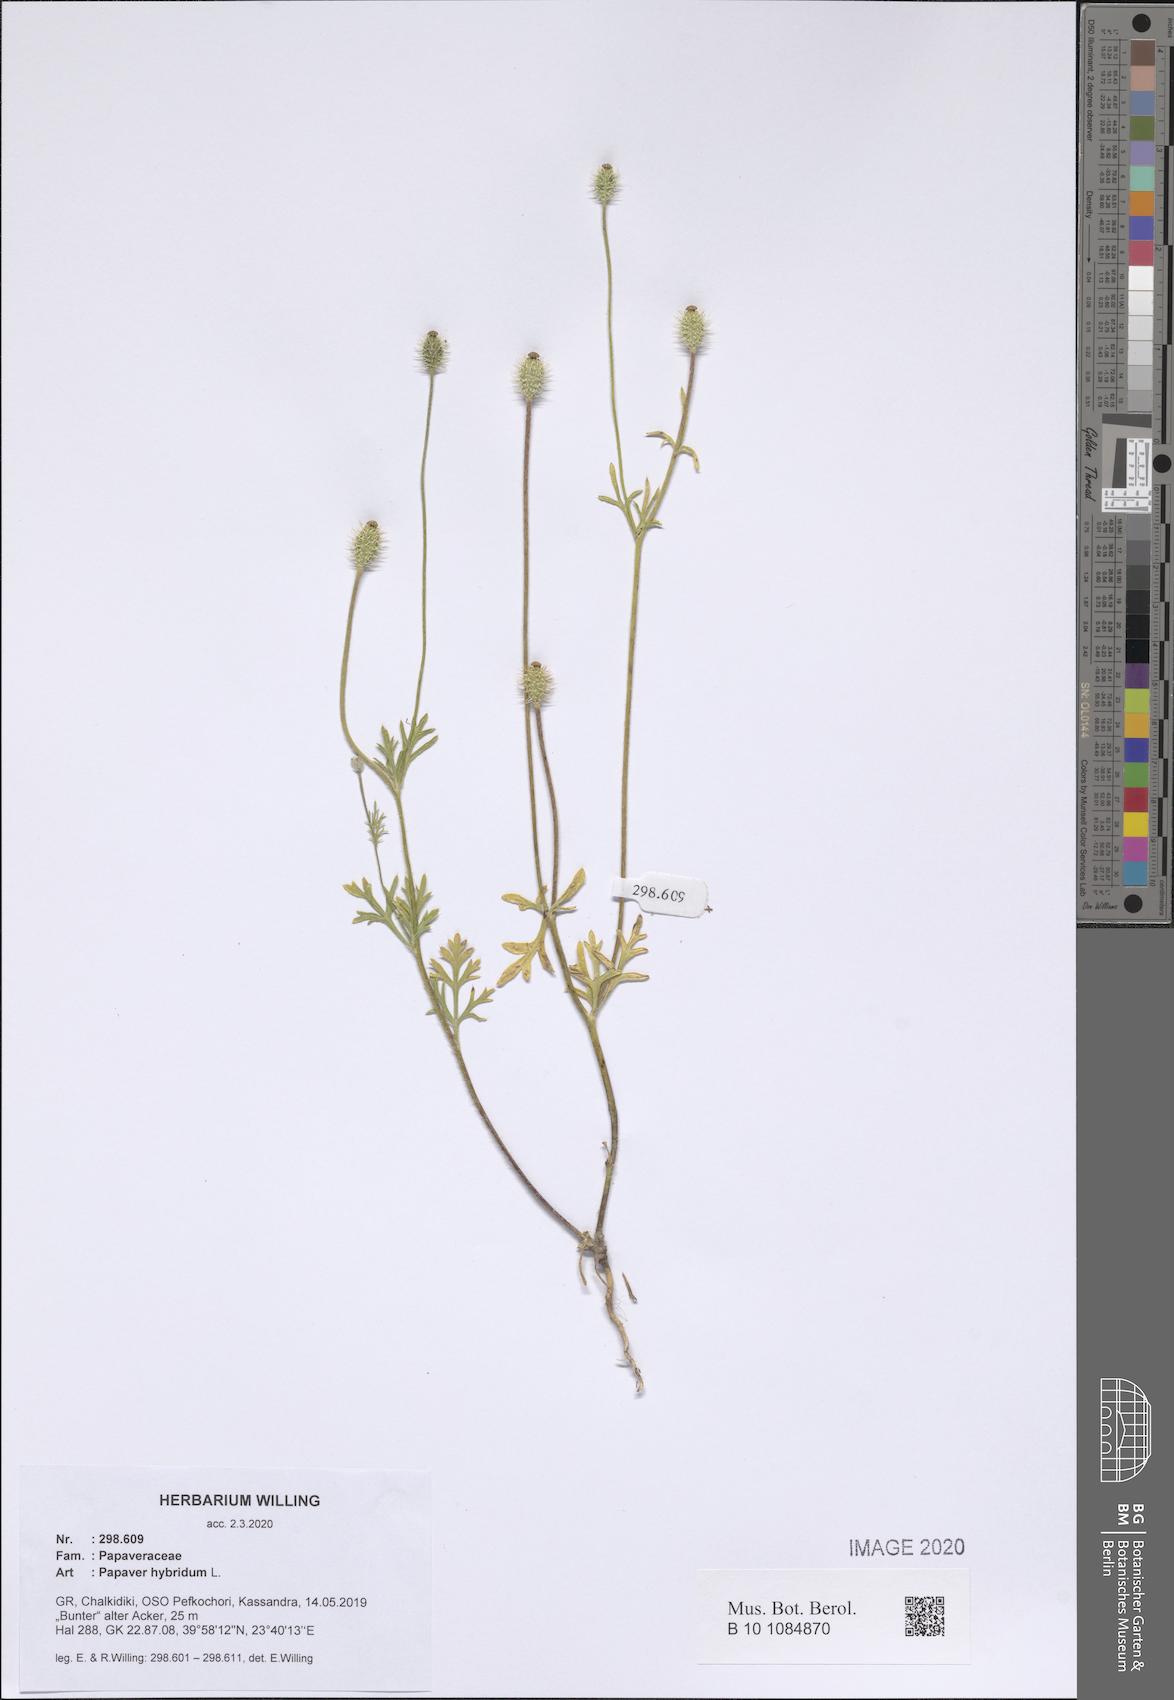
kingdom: Plantae
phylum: Tracheophyta
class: Magnoliopsida
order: Ranunculales
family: Papaveraceae
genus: Roemeria
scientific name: Roemeria hispida
